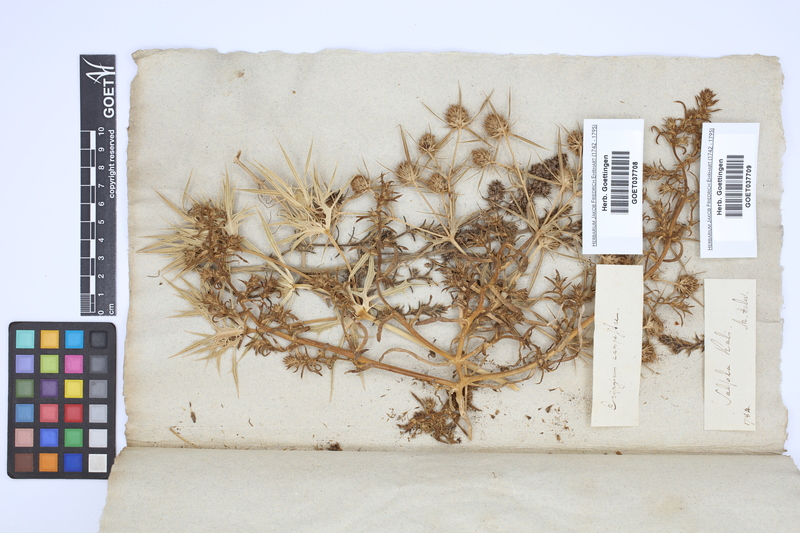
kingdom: Plantae
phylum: Tracheophyta
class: Magnoliopsida
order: Apiales
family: Apiaceae
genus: Eryngium
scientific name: Eryngium campestre
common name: Field eryngo
